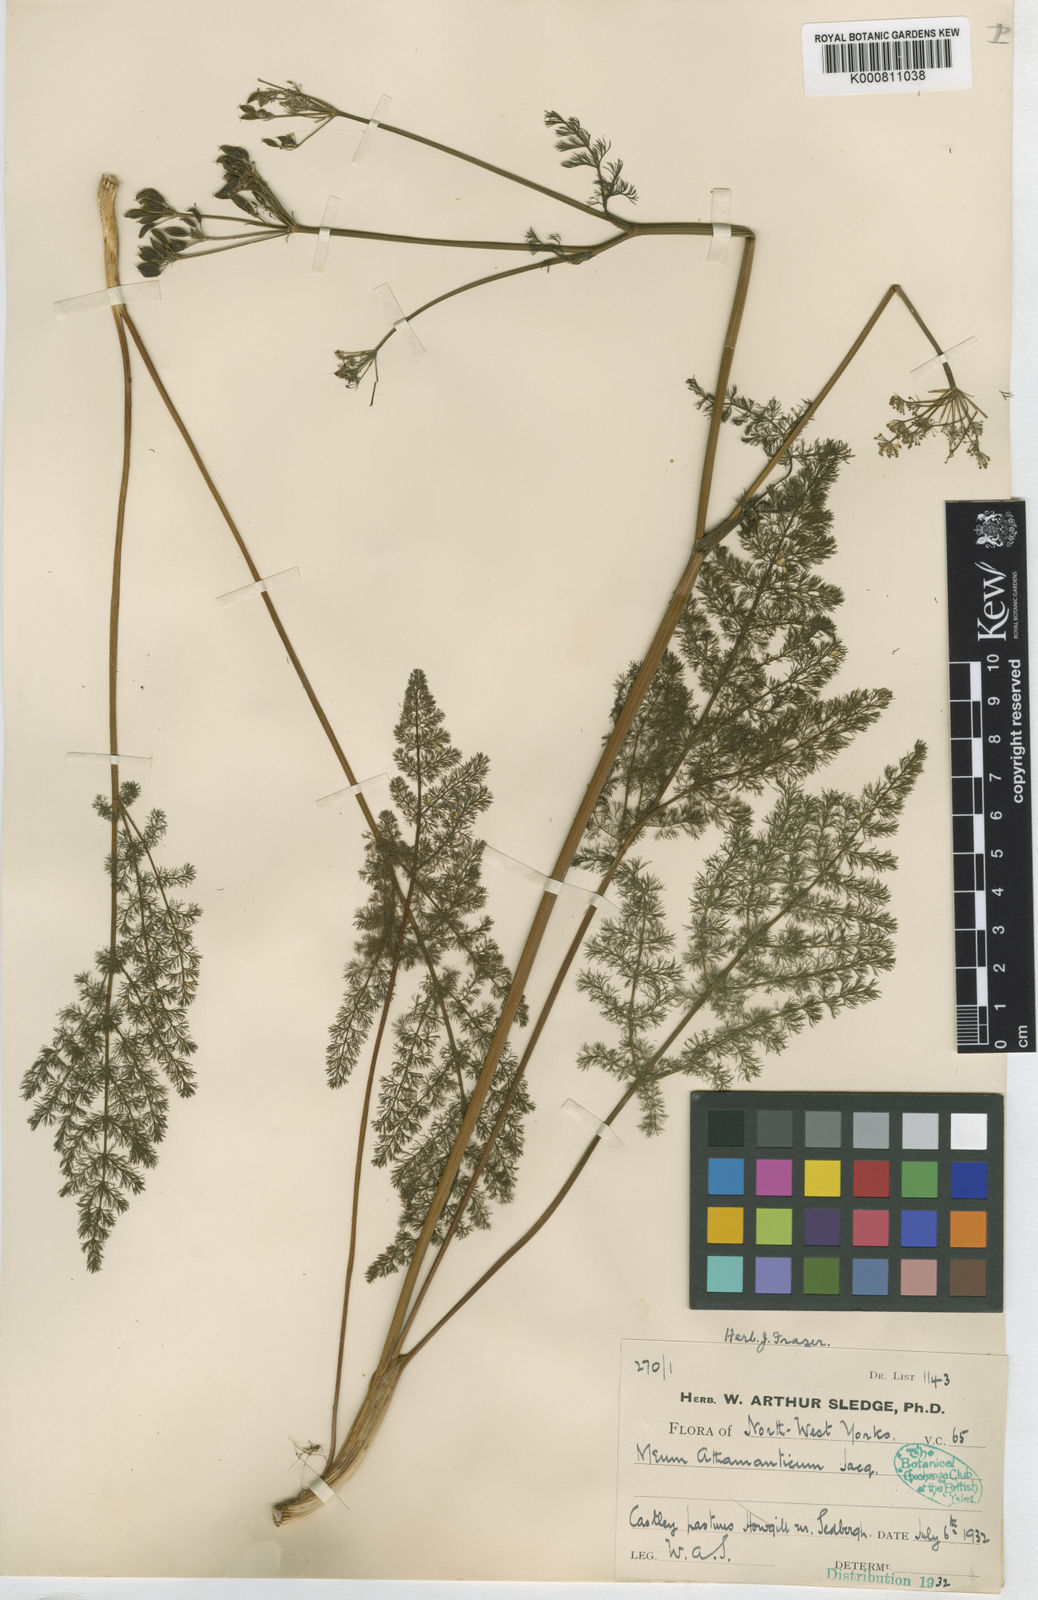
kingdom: Plantae
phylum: Tracheophyta
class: Magnoliopsida
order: Apiales
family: Apiaceae
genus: Meum
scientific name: Meum athamanticum
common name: Spignel
